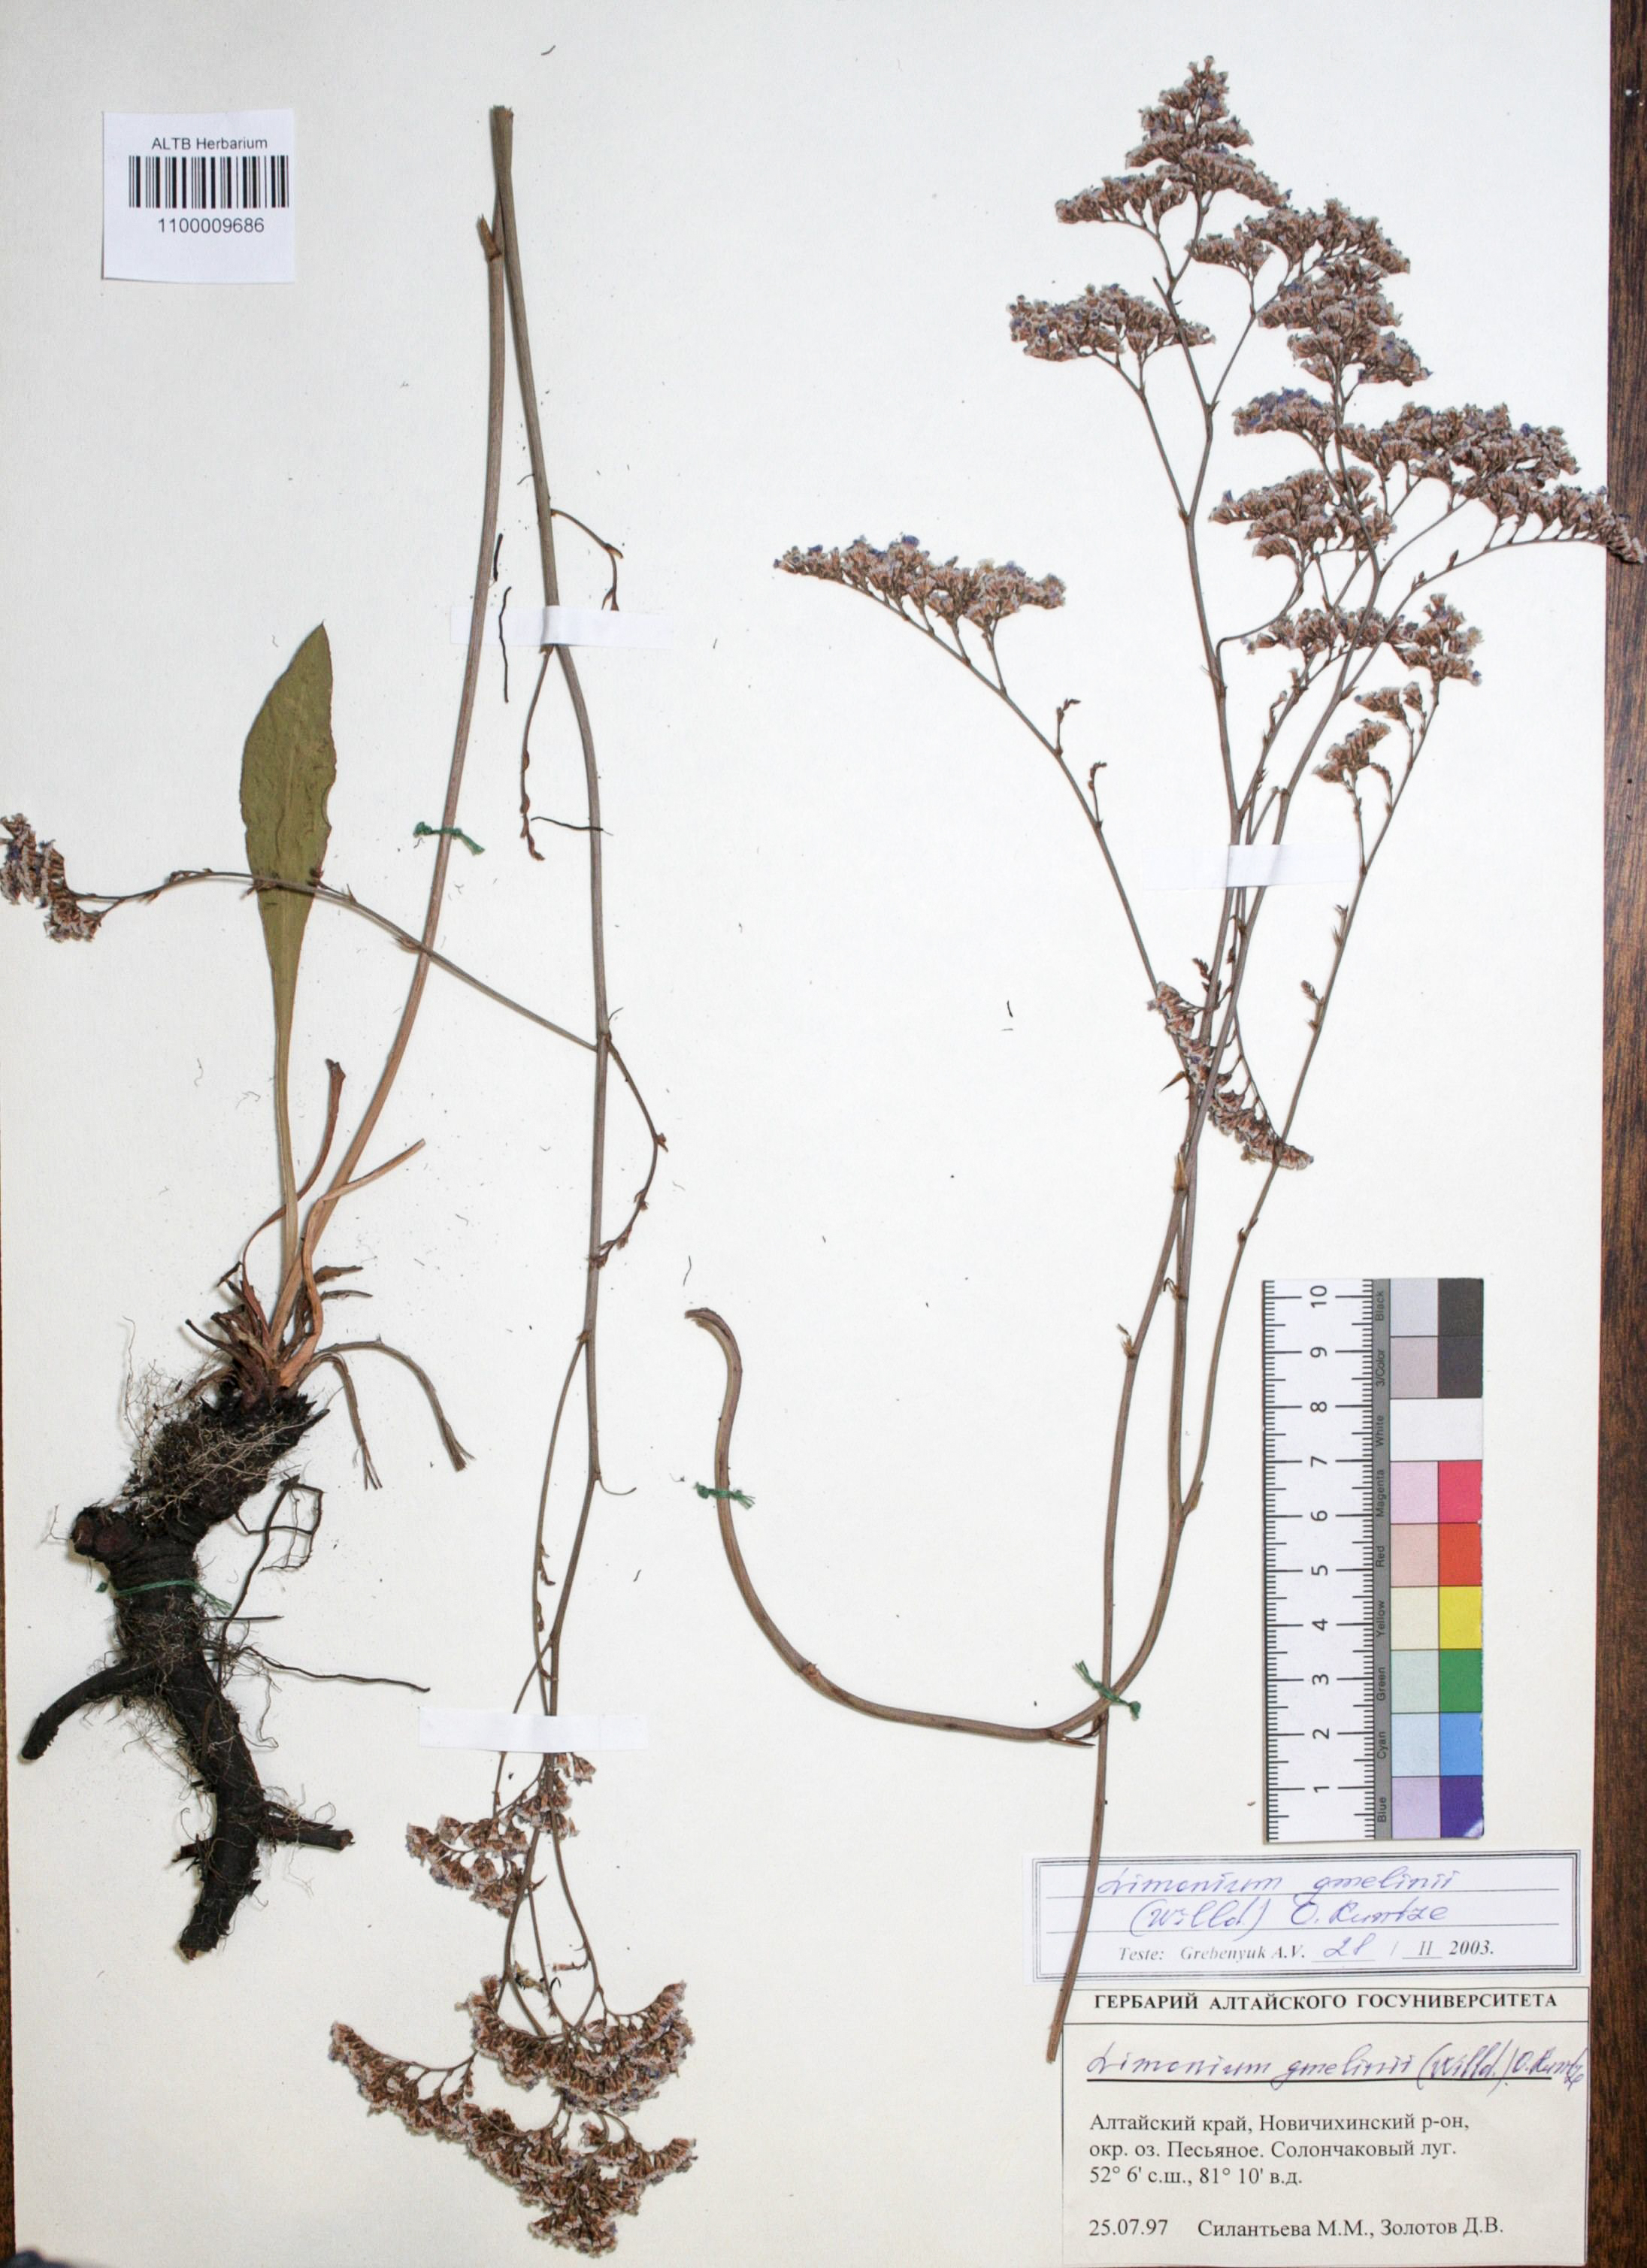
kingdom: Plantae
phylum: Tracheophyta
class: Magnoliopsida
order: Caryophyllales
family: Plumbaginaceae
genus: Limonium
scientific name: Limonium gmelini
